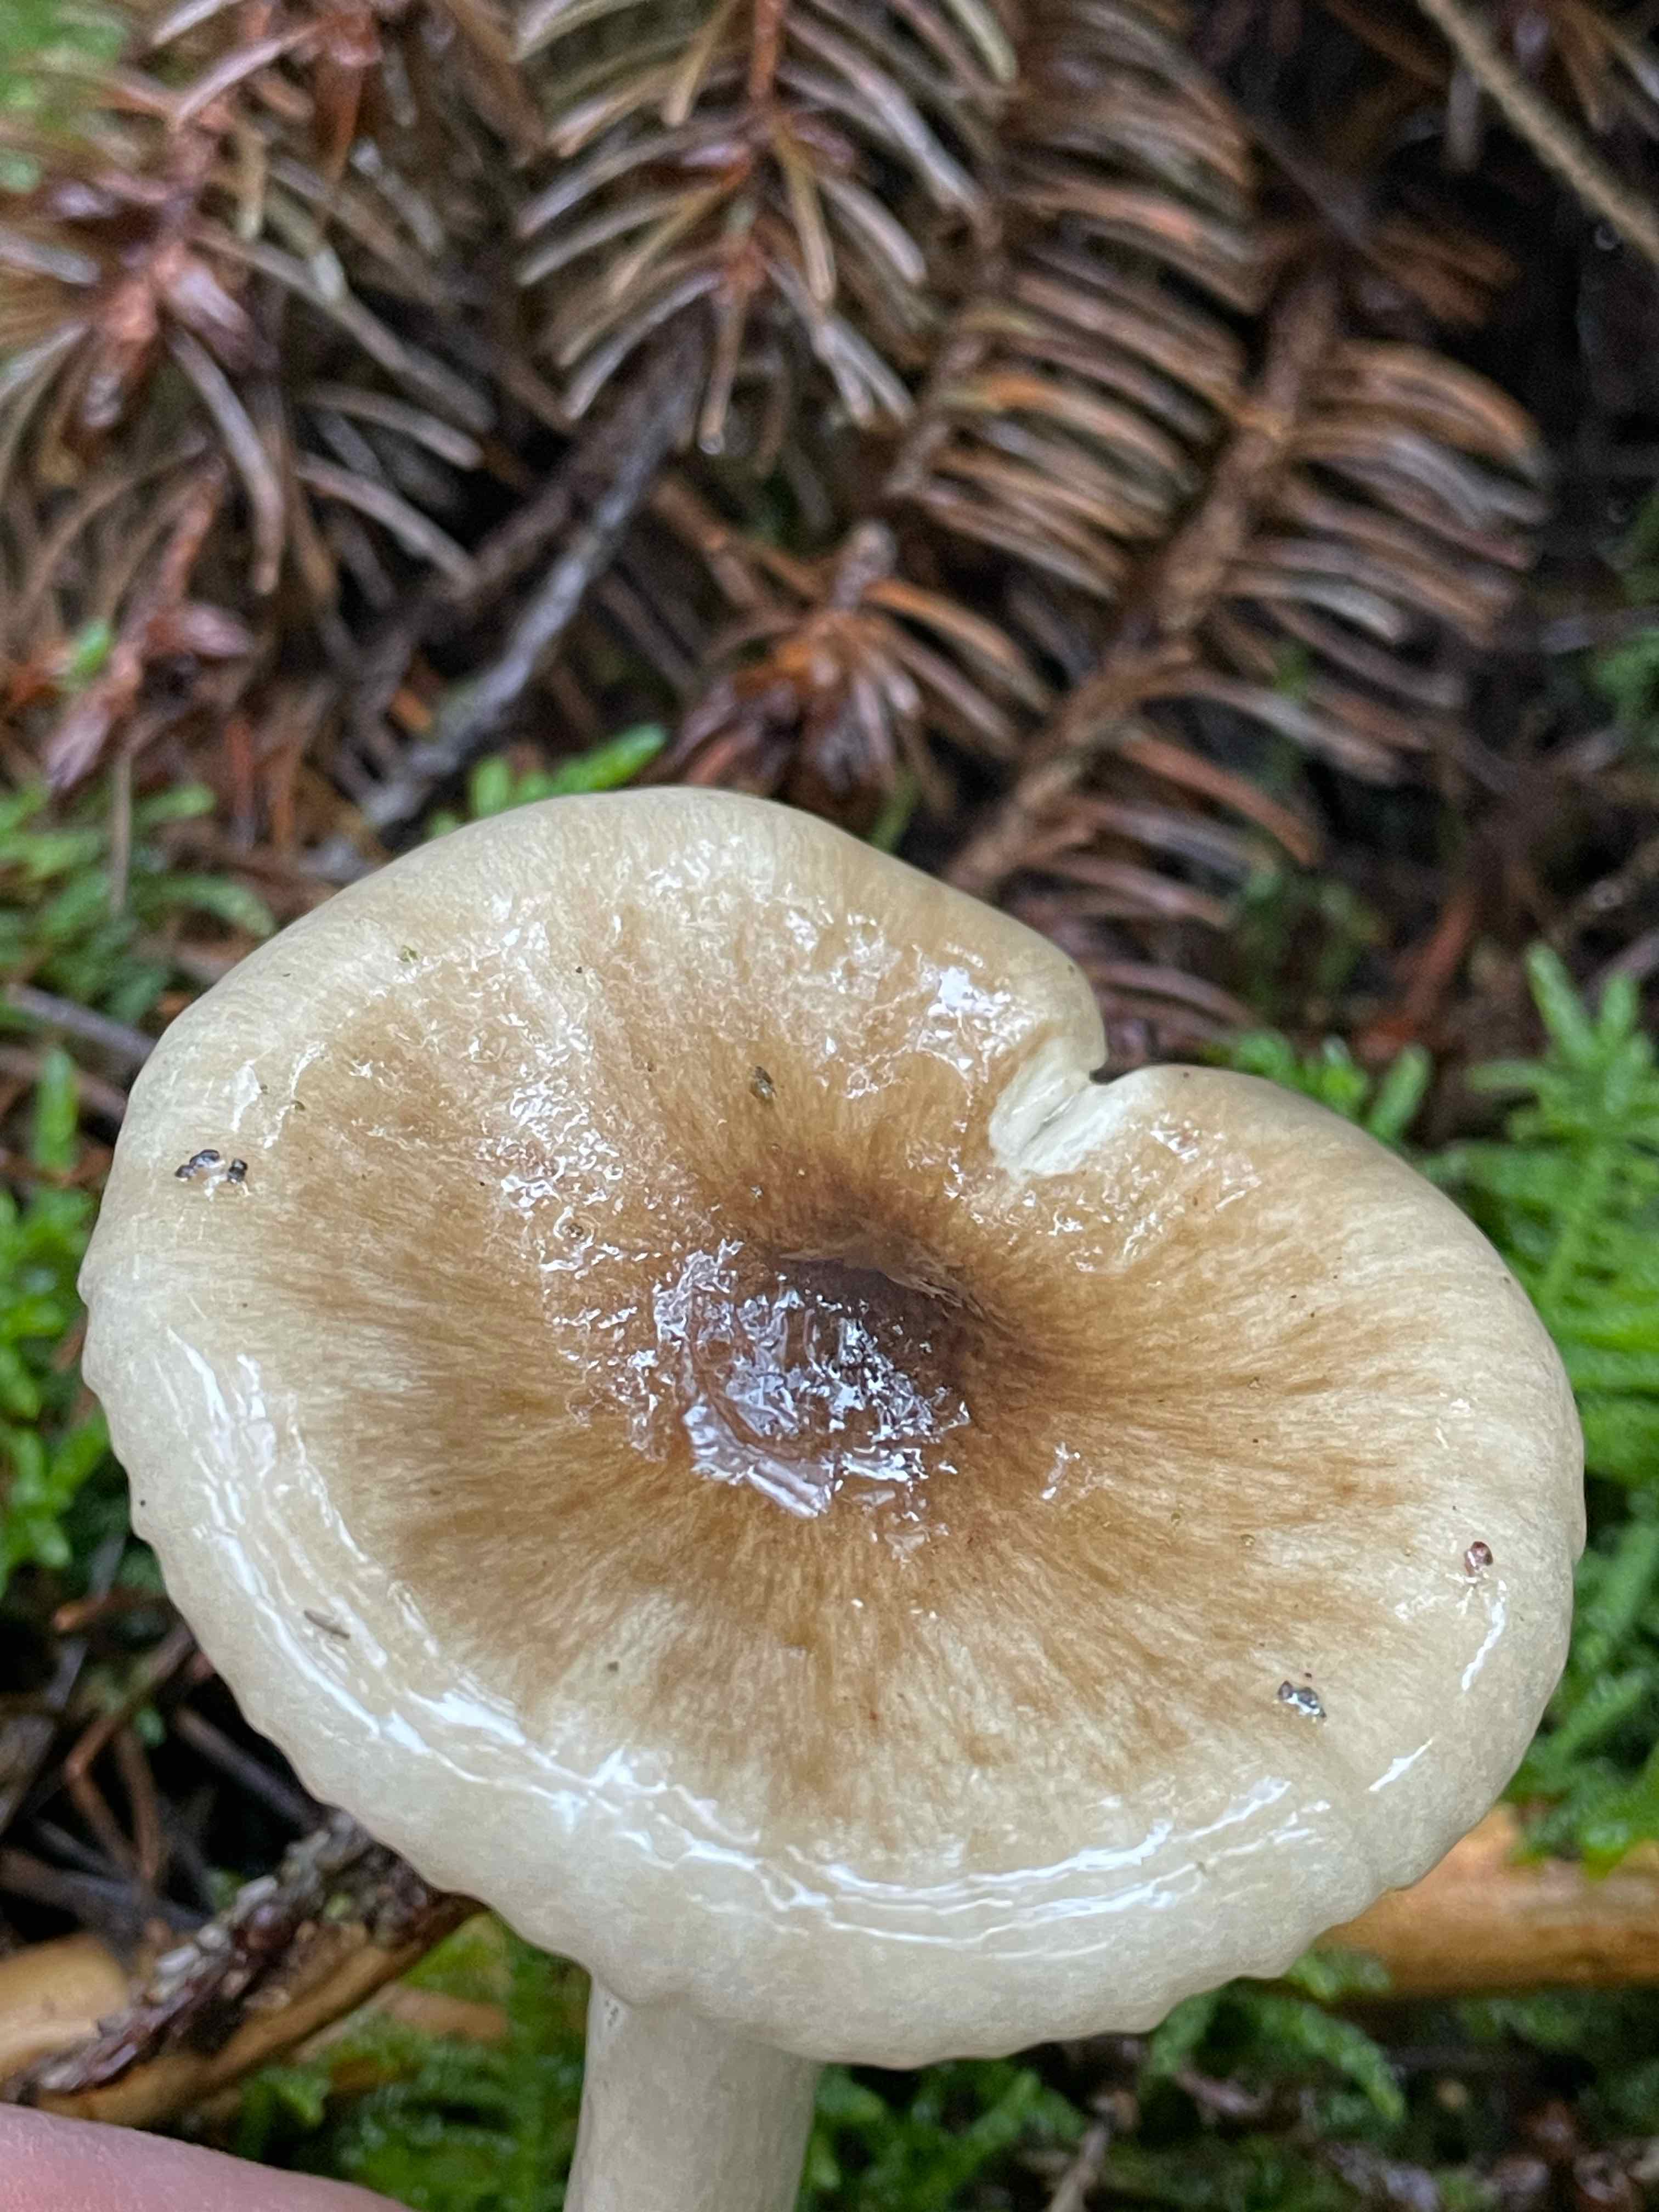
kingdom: Fungi
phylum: Basidiomycota
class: Agaricomycetes
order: Agaricales
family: Hygrophoraceae
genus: Hygrophorus
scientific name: Hygrophorus olivaceoalbus
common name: hvidbrun sneglehat
